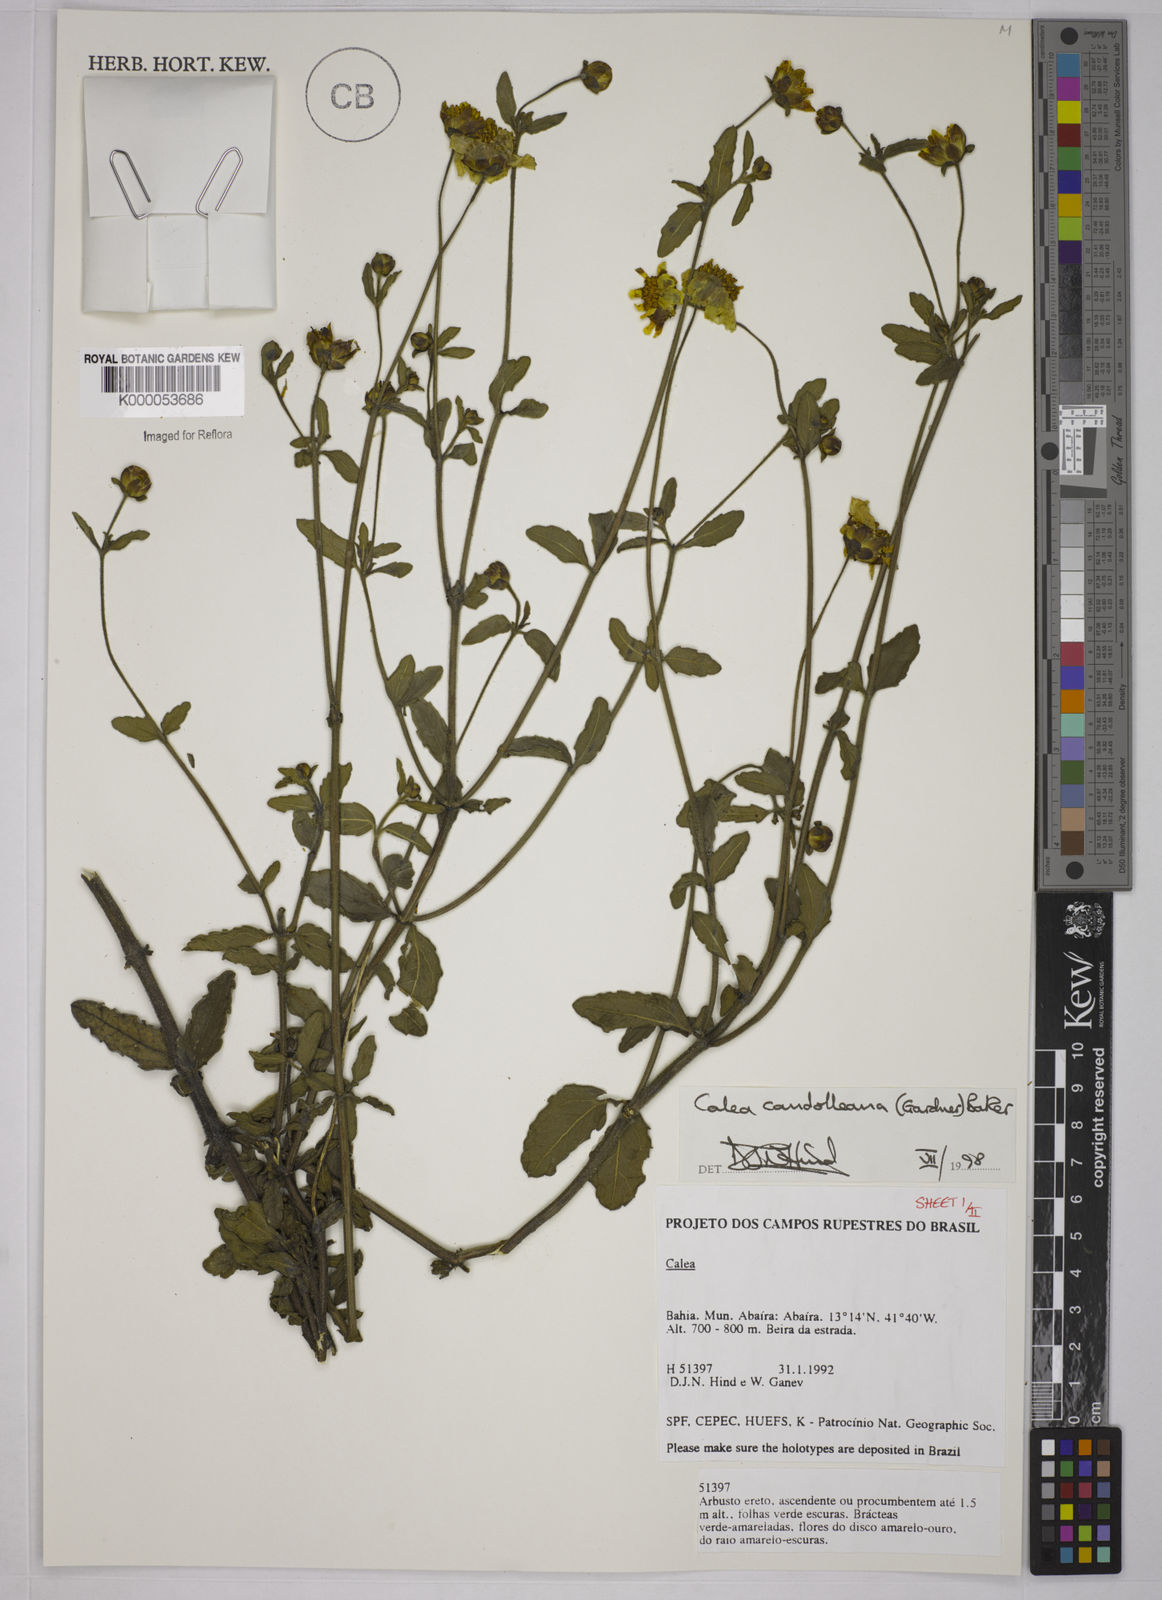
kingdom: Plantae
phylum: Tracheophyta
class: Magnoliopsida
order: Asterales
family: Asteraceae
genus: Calea
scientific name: Calea candolleana
